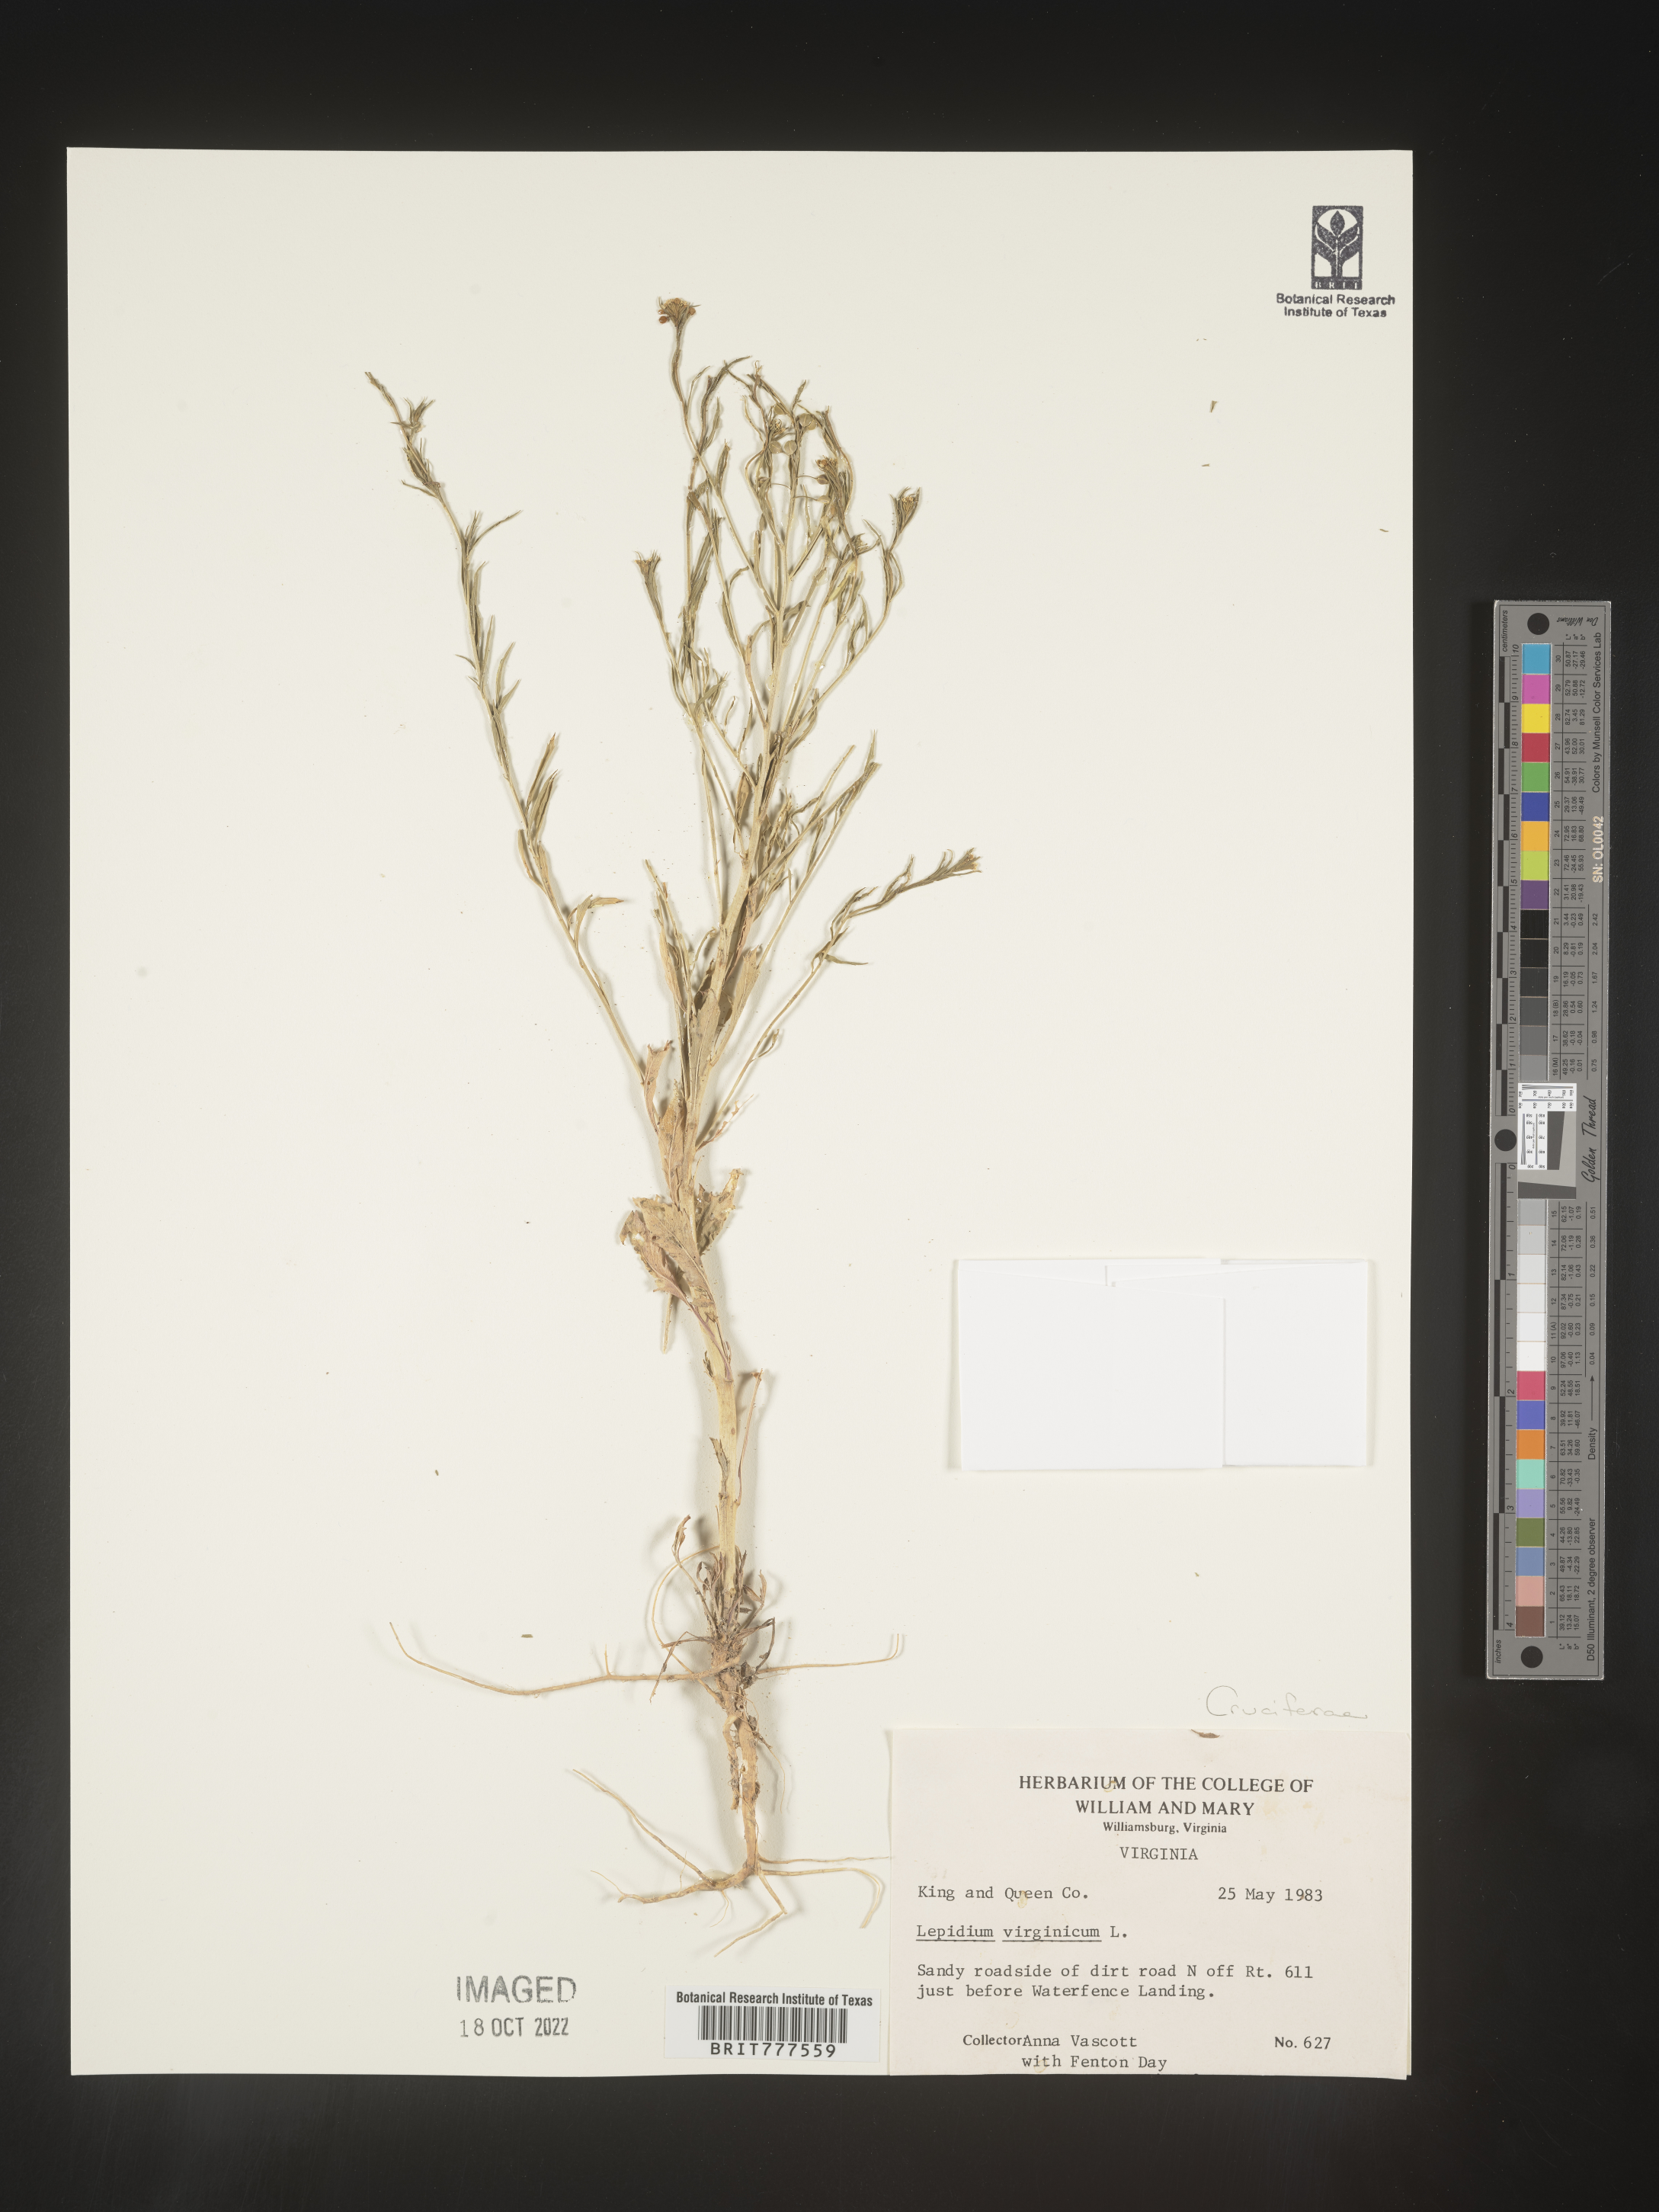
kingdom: Plantae
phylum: Tracheophyta
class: Magnoliopsida
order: Brassicales
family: Brassicaceae
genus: Lepidium
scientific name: Lepidium virginicum
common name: Least pepperwort
